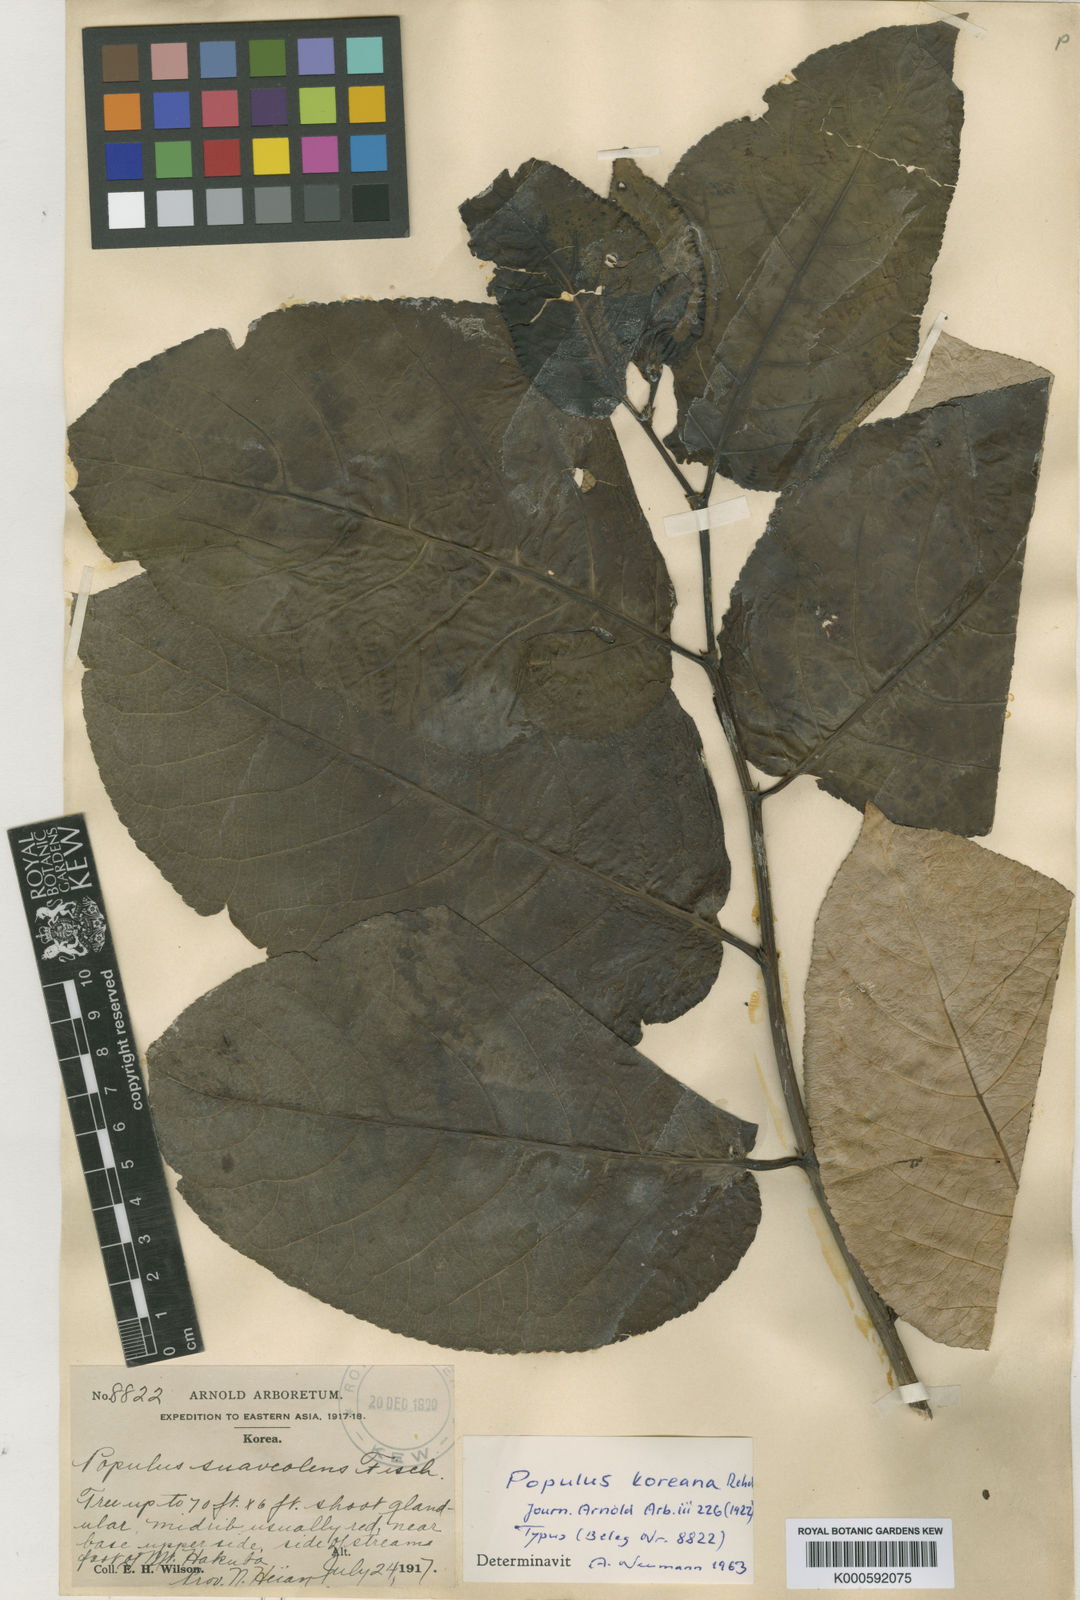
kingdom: Plantae
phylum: Tracheophyta
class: Magnoliopsida
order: Malpighiales
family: Salicaceae
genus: Populus
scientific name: Populus suaveolens
